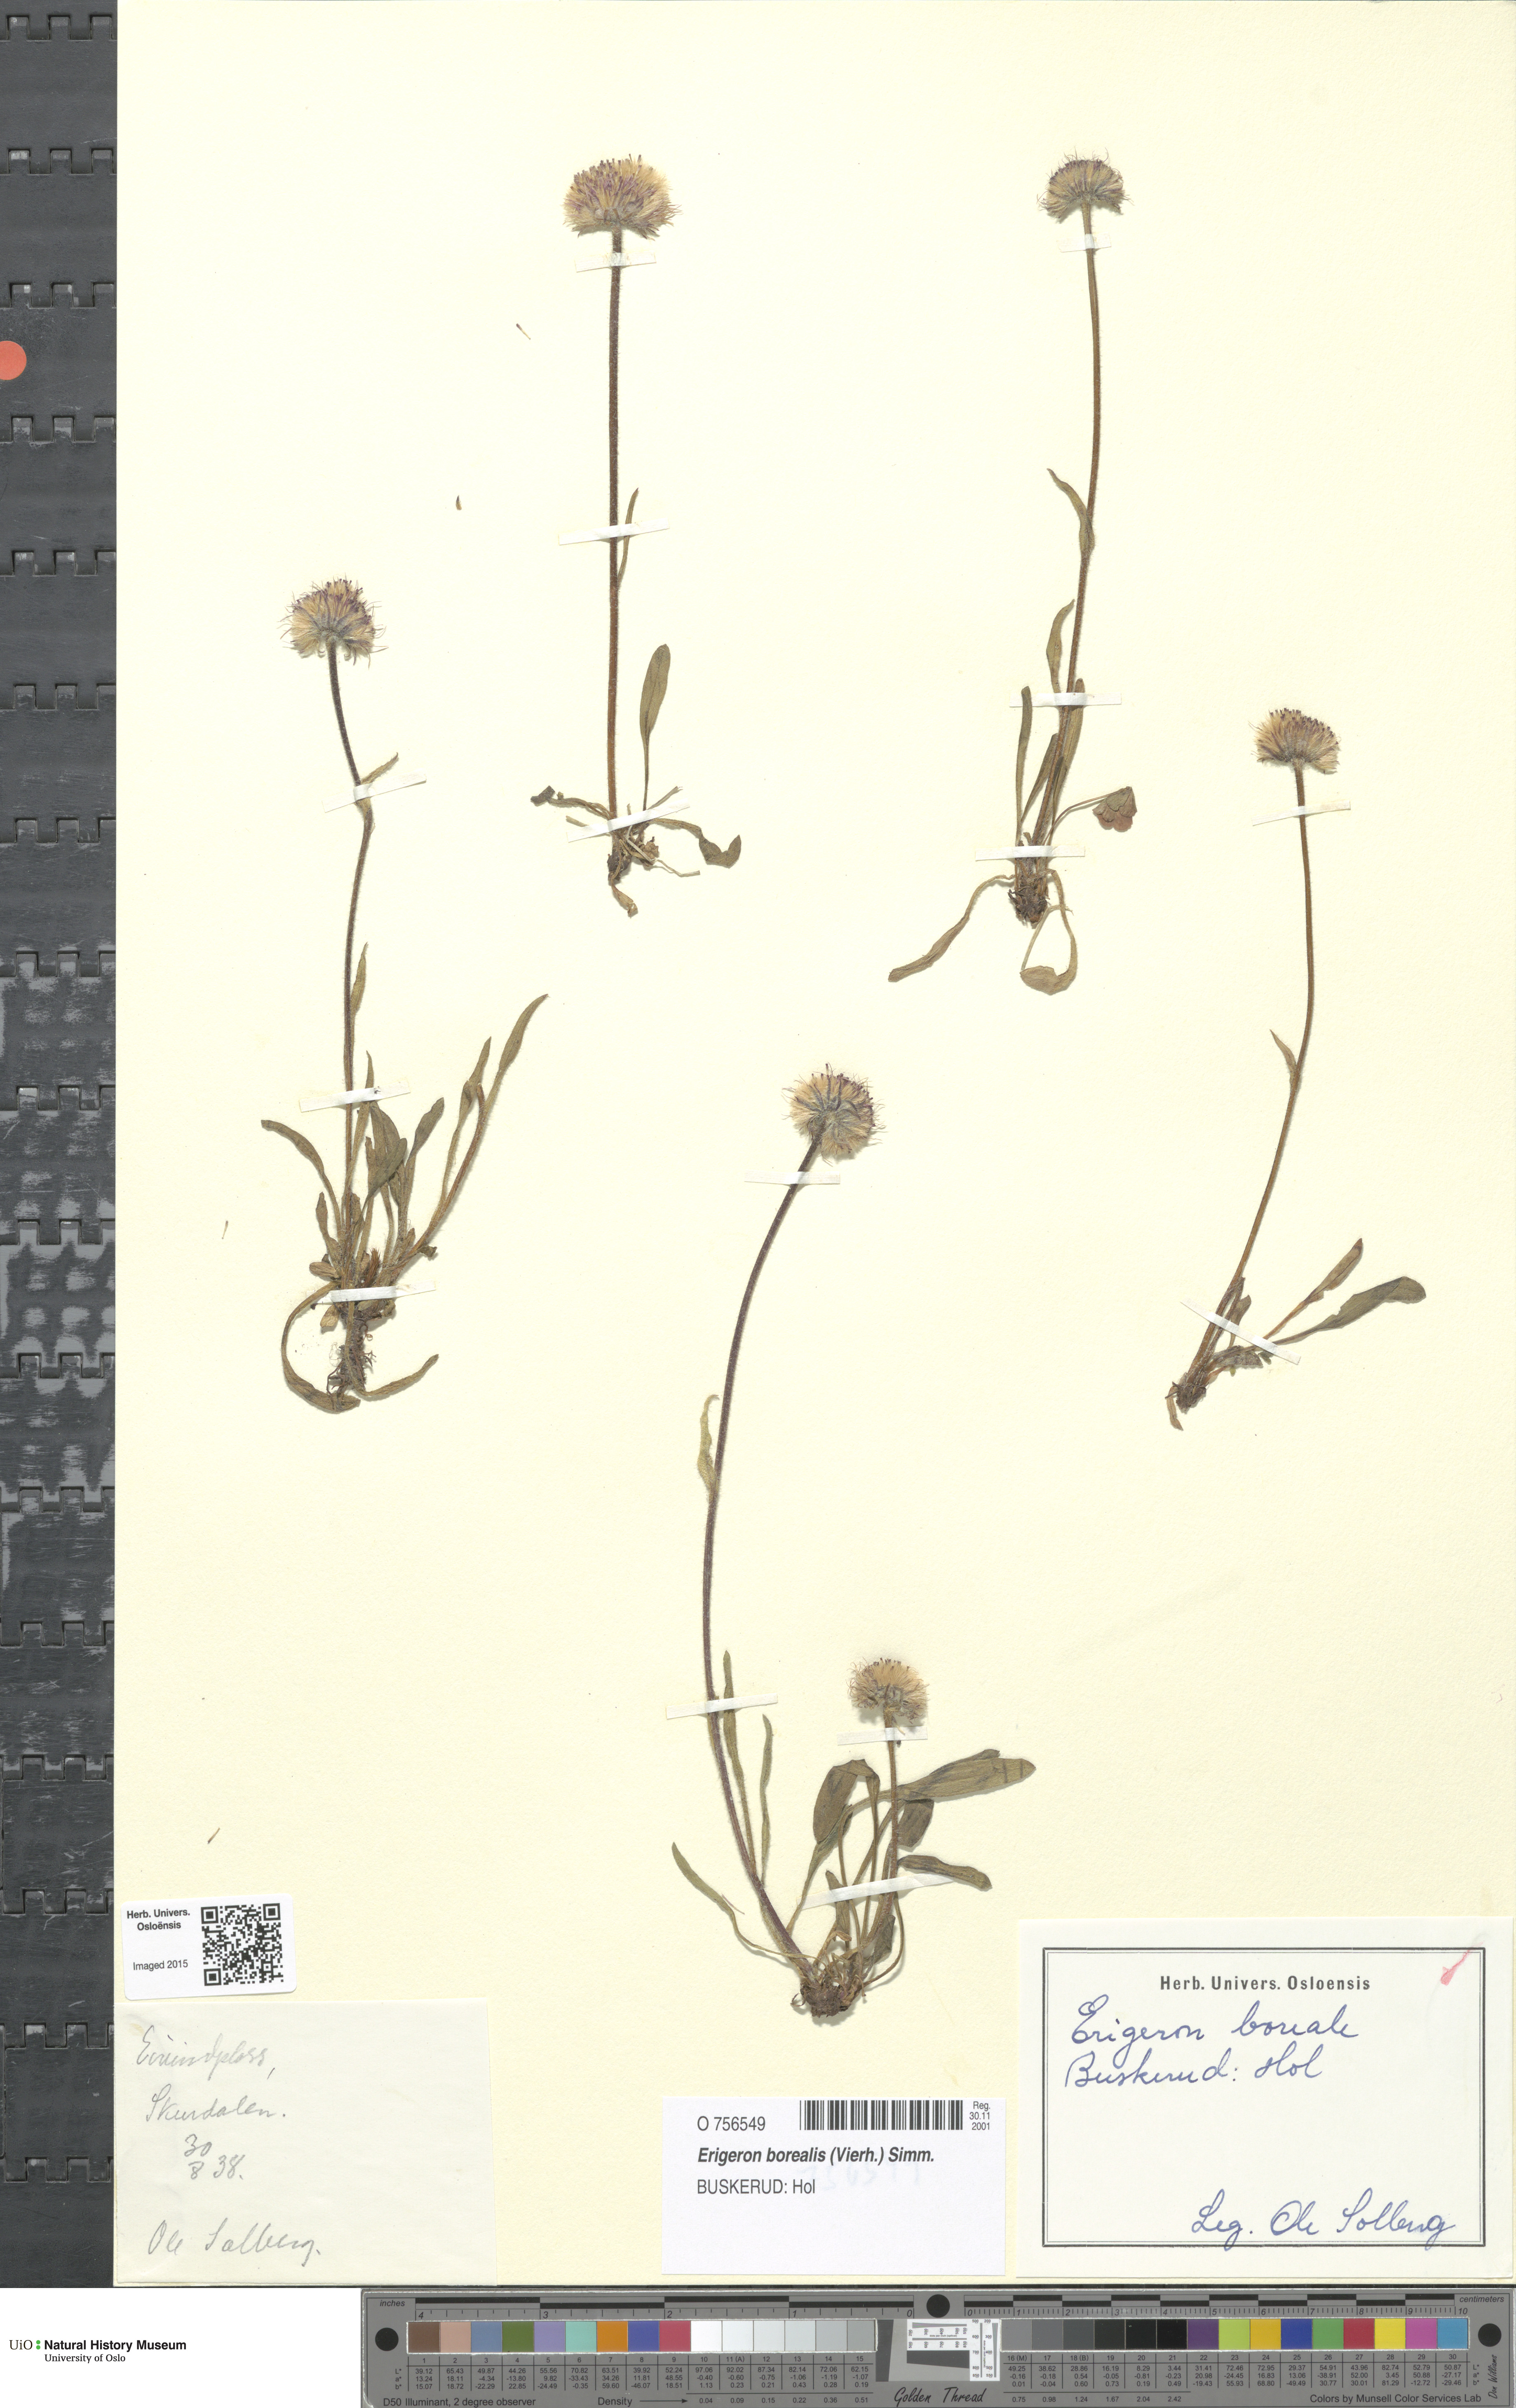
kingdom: Plantae
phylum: Tracheophyta
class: Magnoliopsida
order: Asterales
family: Asteraceae
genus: Erigeron
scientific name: Erigeron borealis
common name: Alpine fleabane
